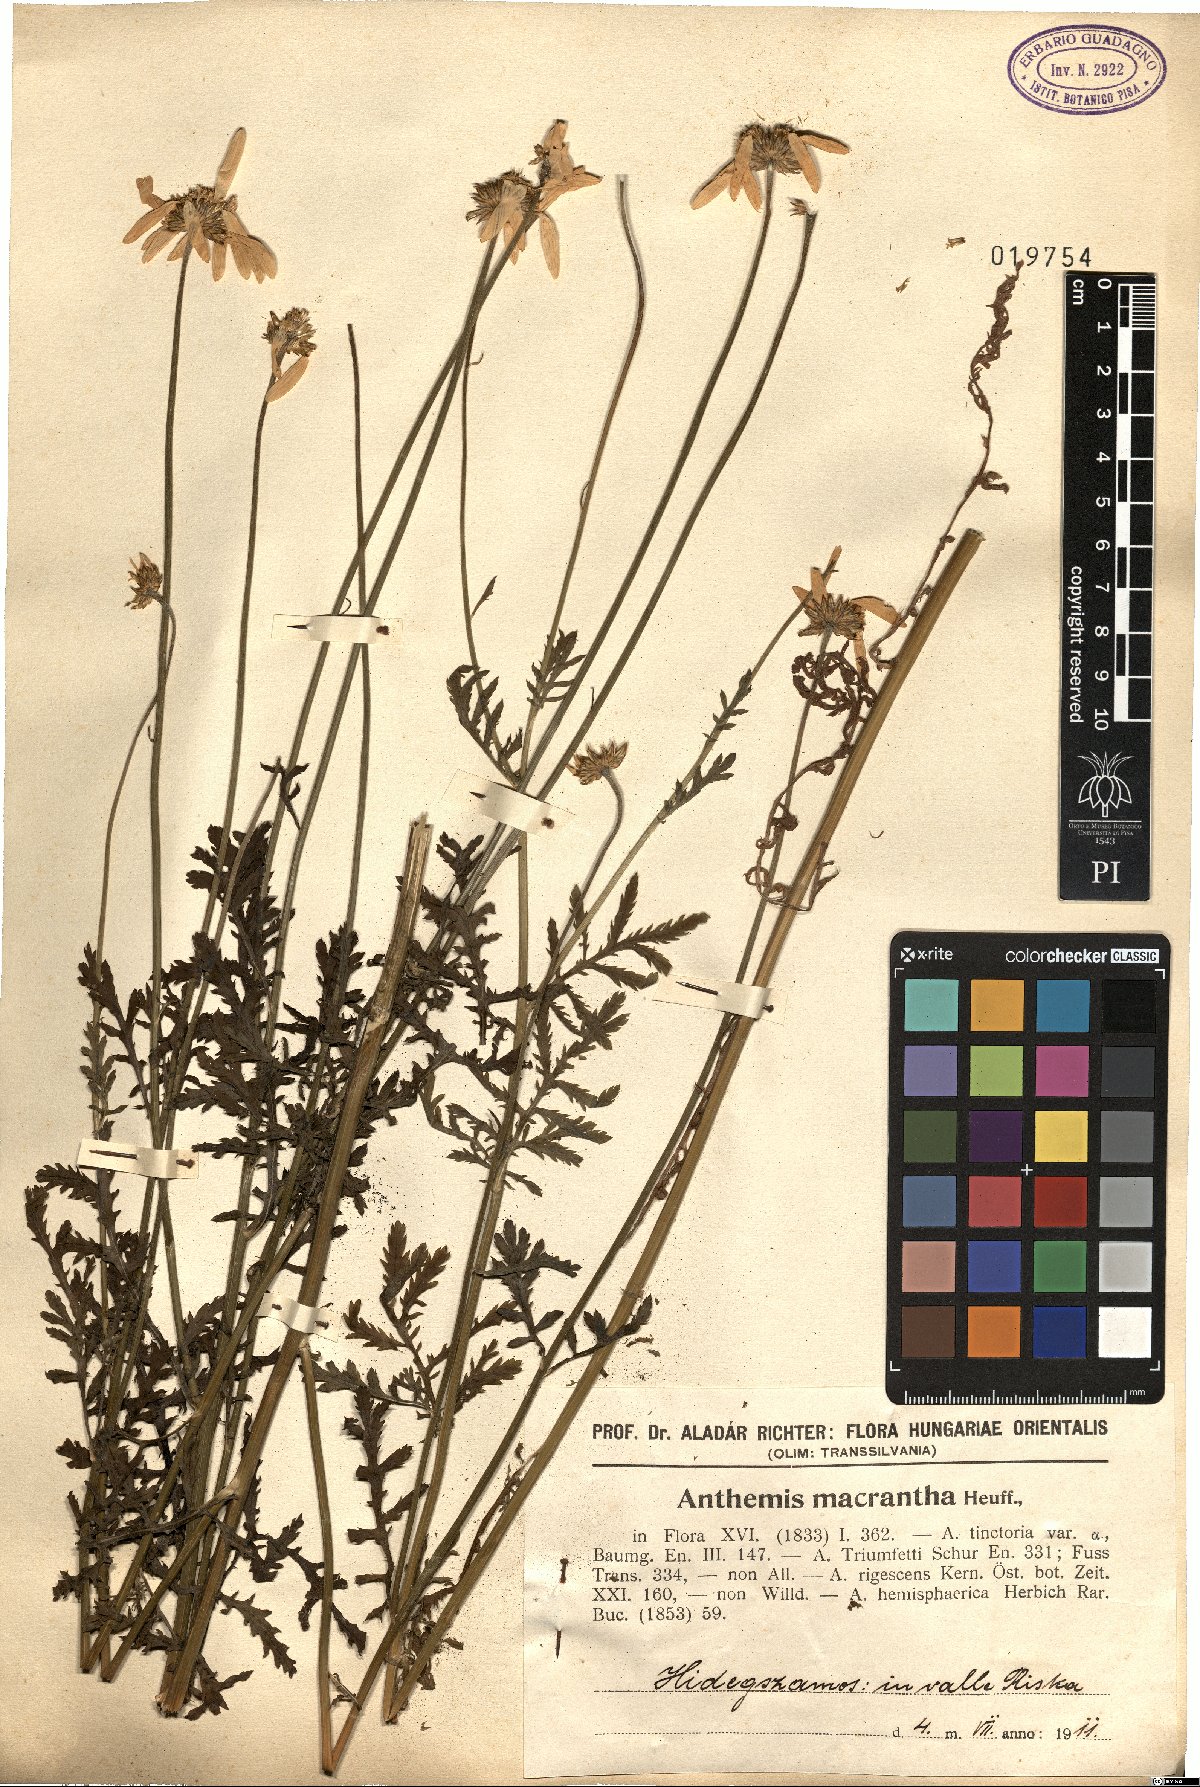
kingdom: Plantae
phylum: Tracheophyta
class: Magnoliopsida
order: Asterales
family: Asteraceae
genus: Cota
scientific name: Cota macrantha
